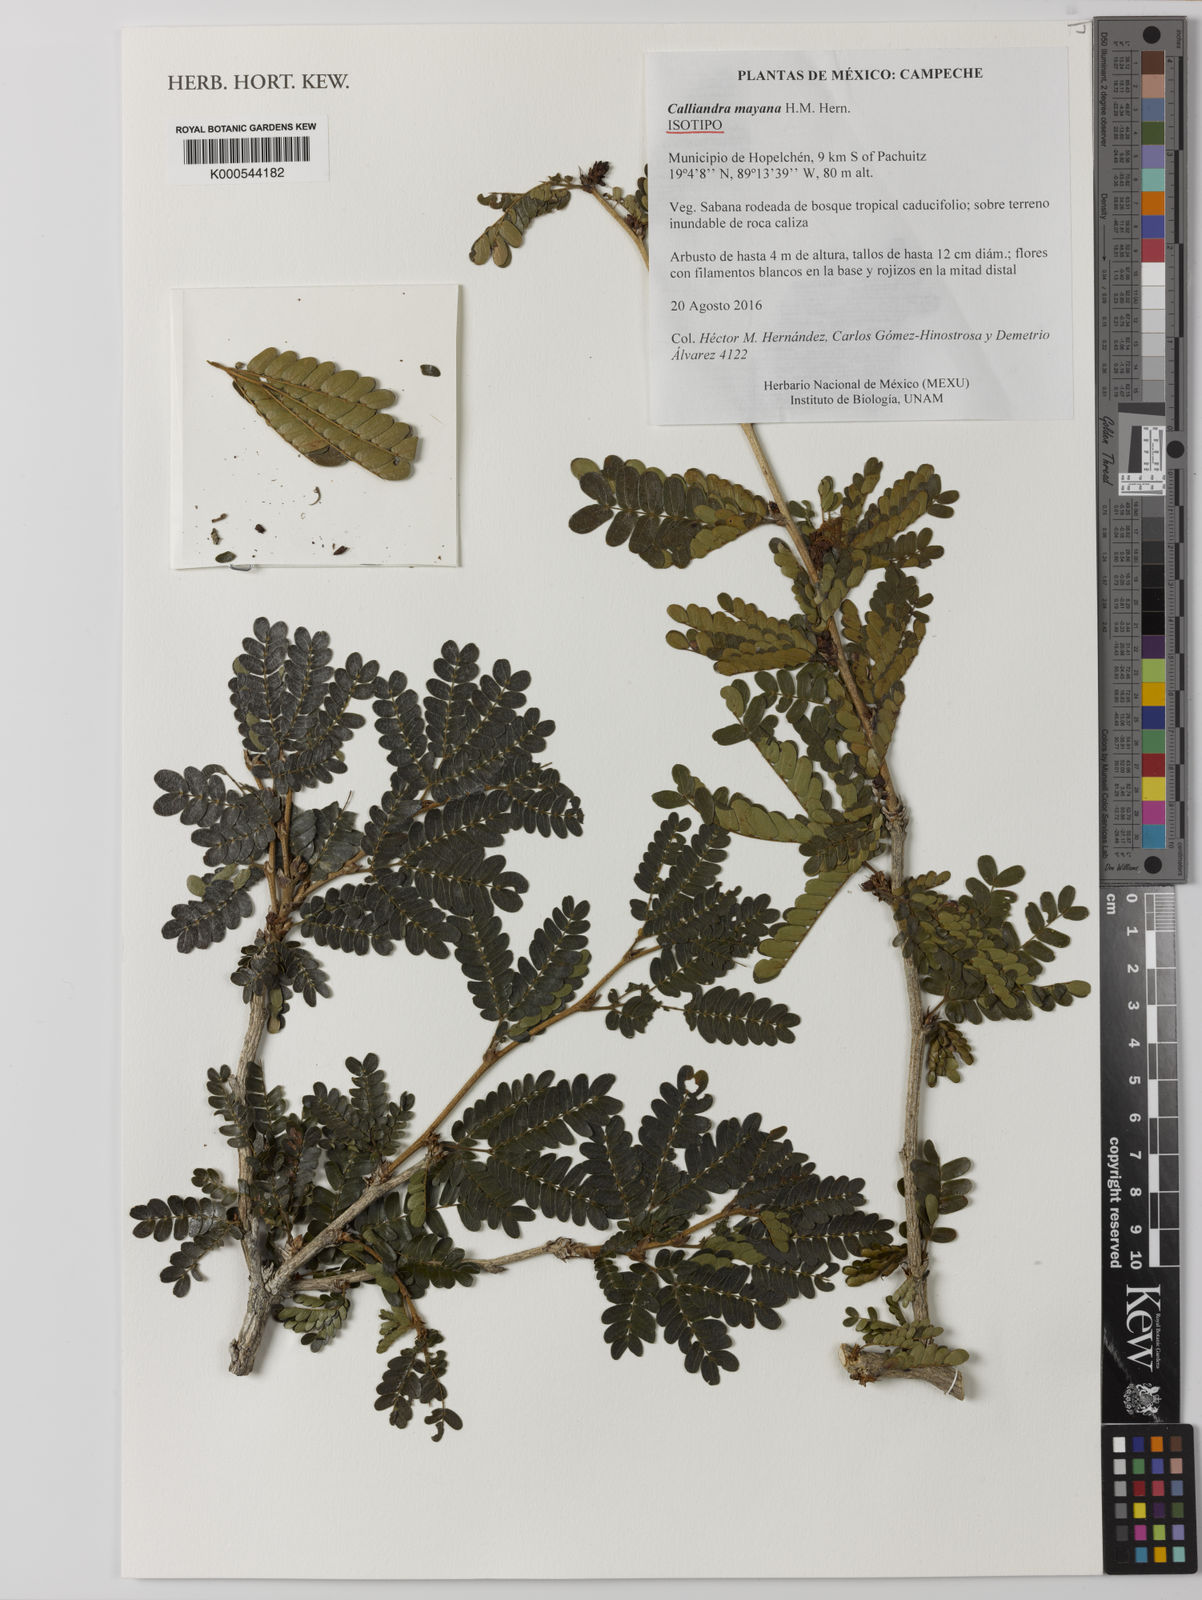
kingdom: Plantae
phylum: Tracheophyta
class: Magnoliopsida
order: Fabales
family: Fabaceae
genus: Calliandra
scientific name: Calliandra mayana
